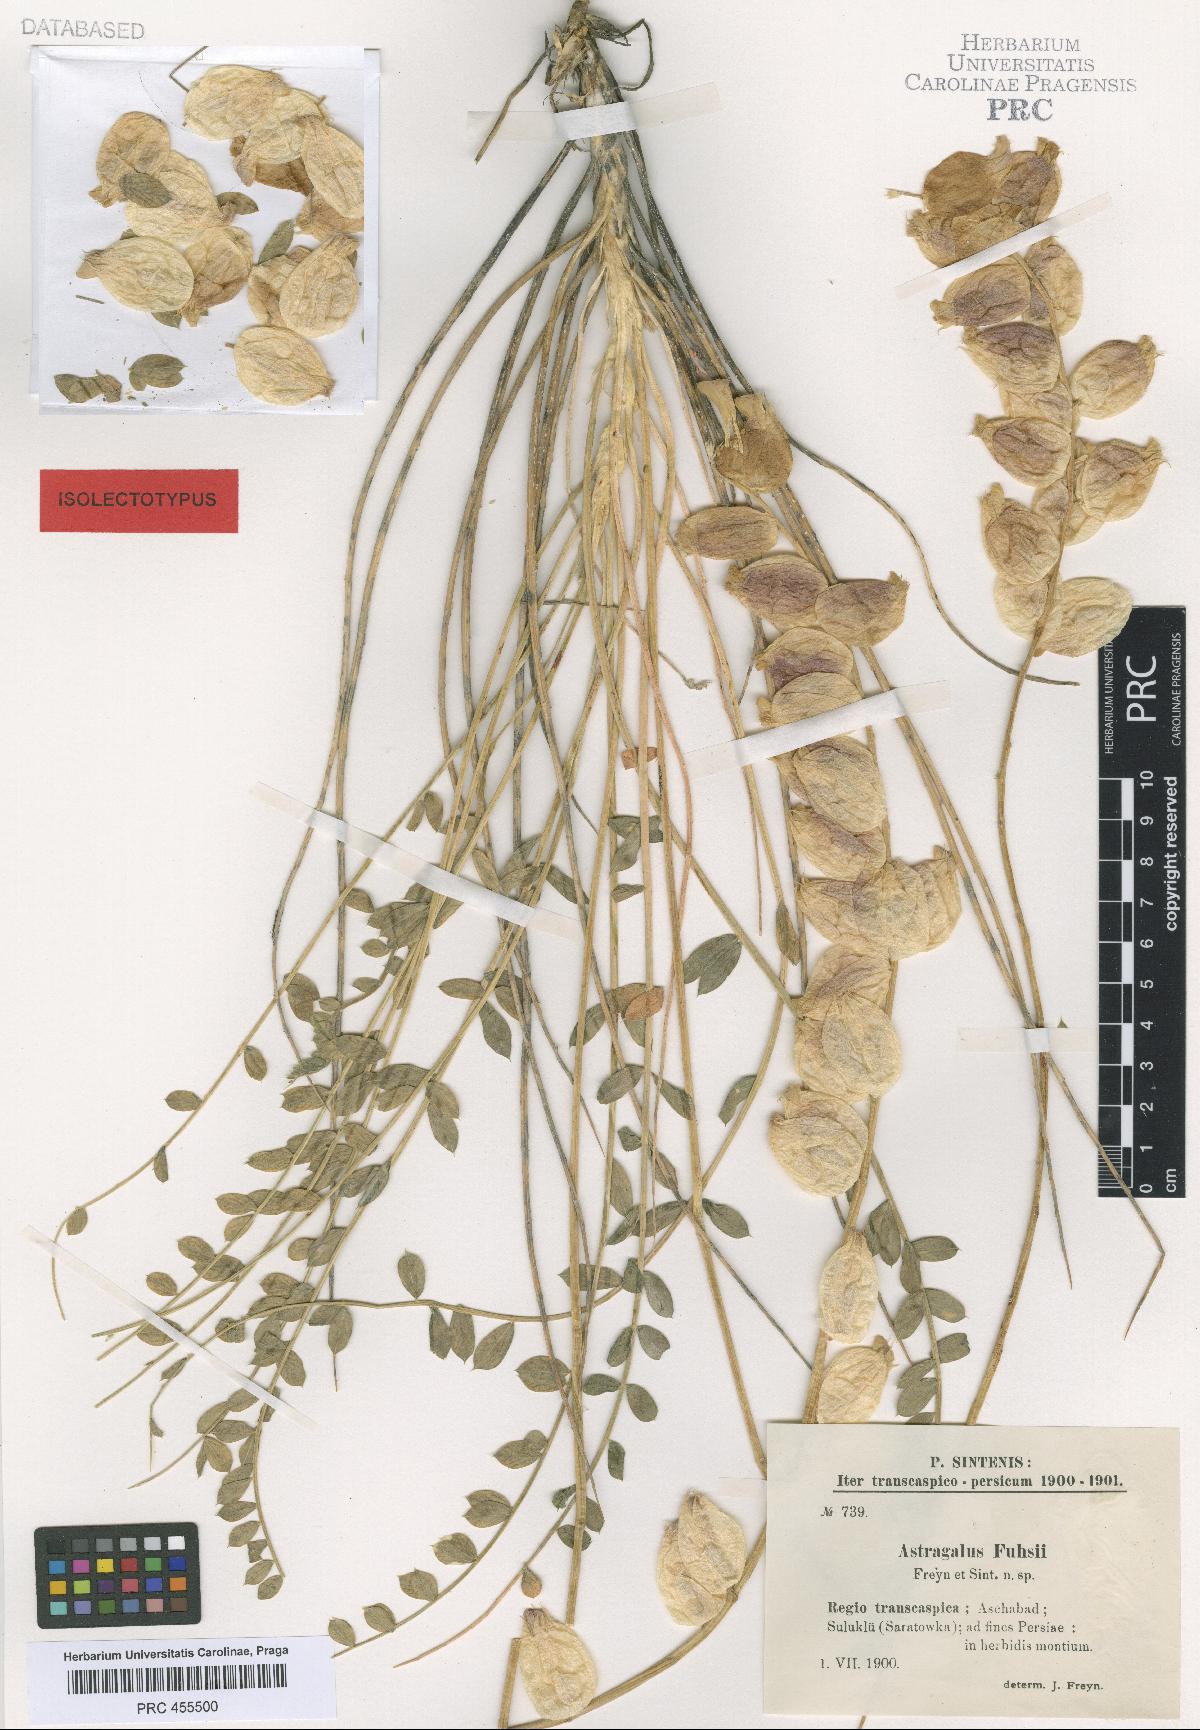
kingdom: Plantae
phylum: Tracheophyta
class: Magnoliopsida
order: Fabales
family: Fabaceae
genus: Astragalus
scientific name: Astragalus fuhsii
